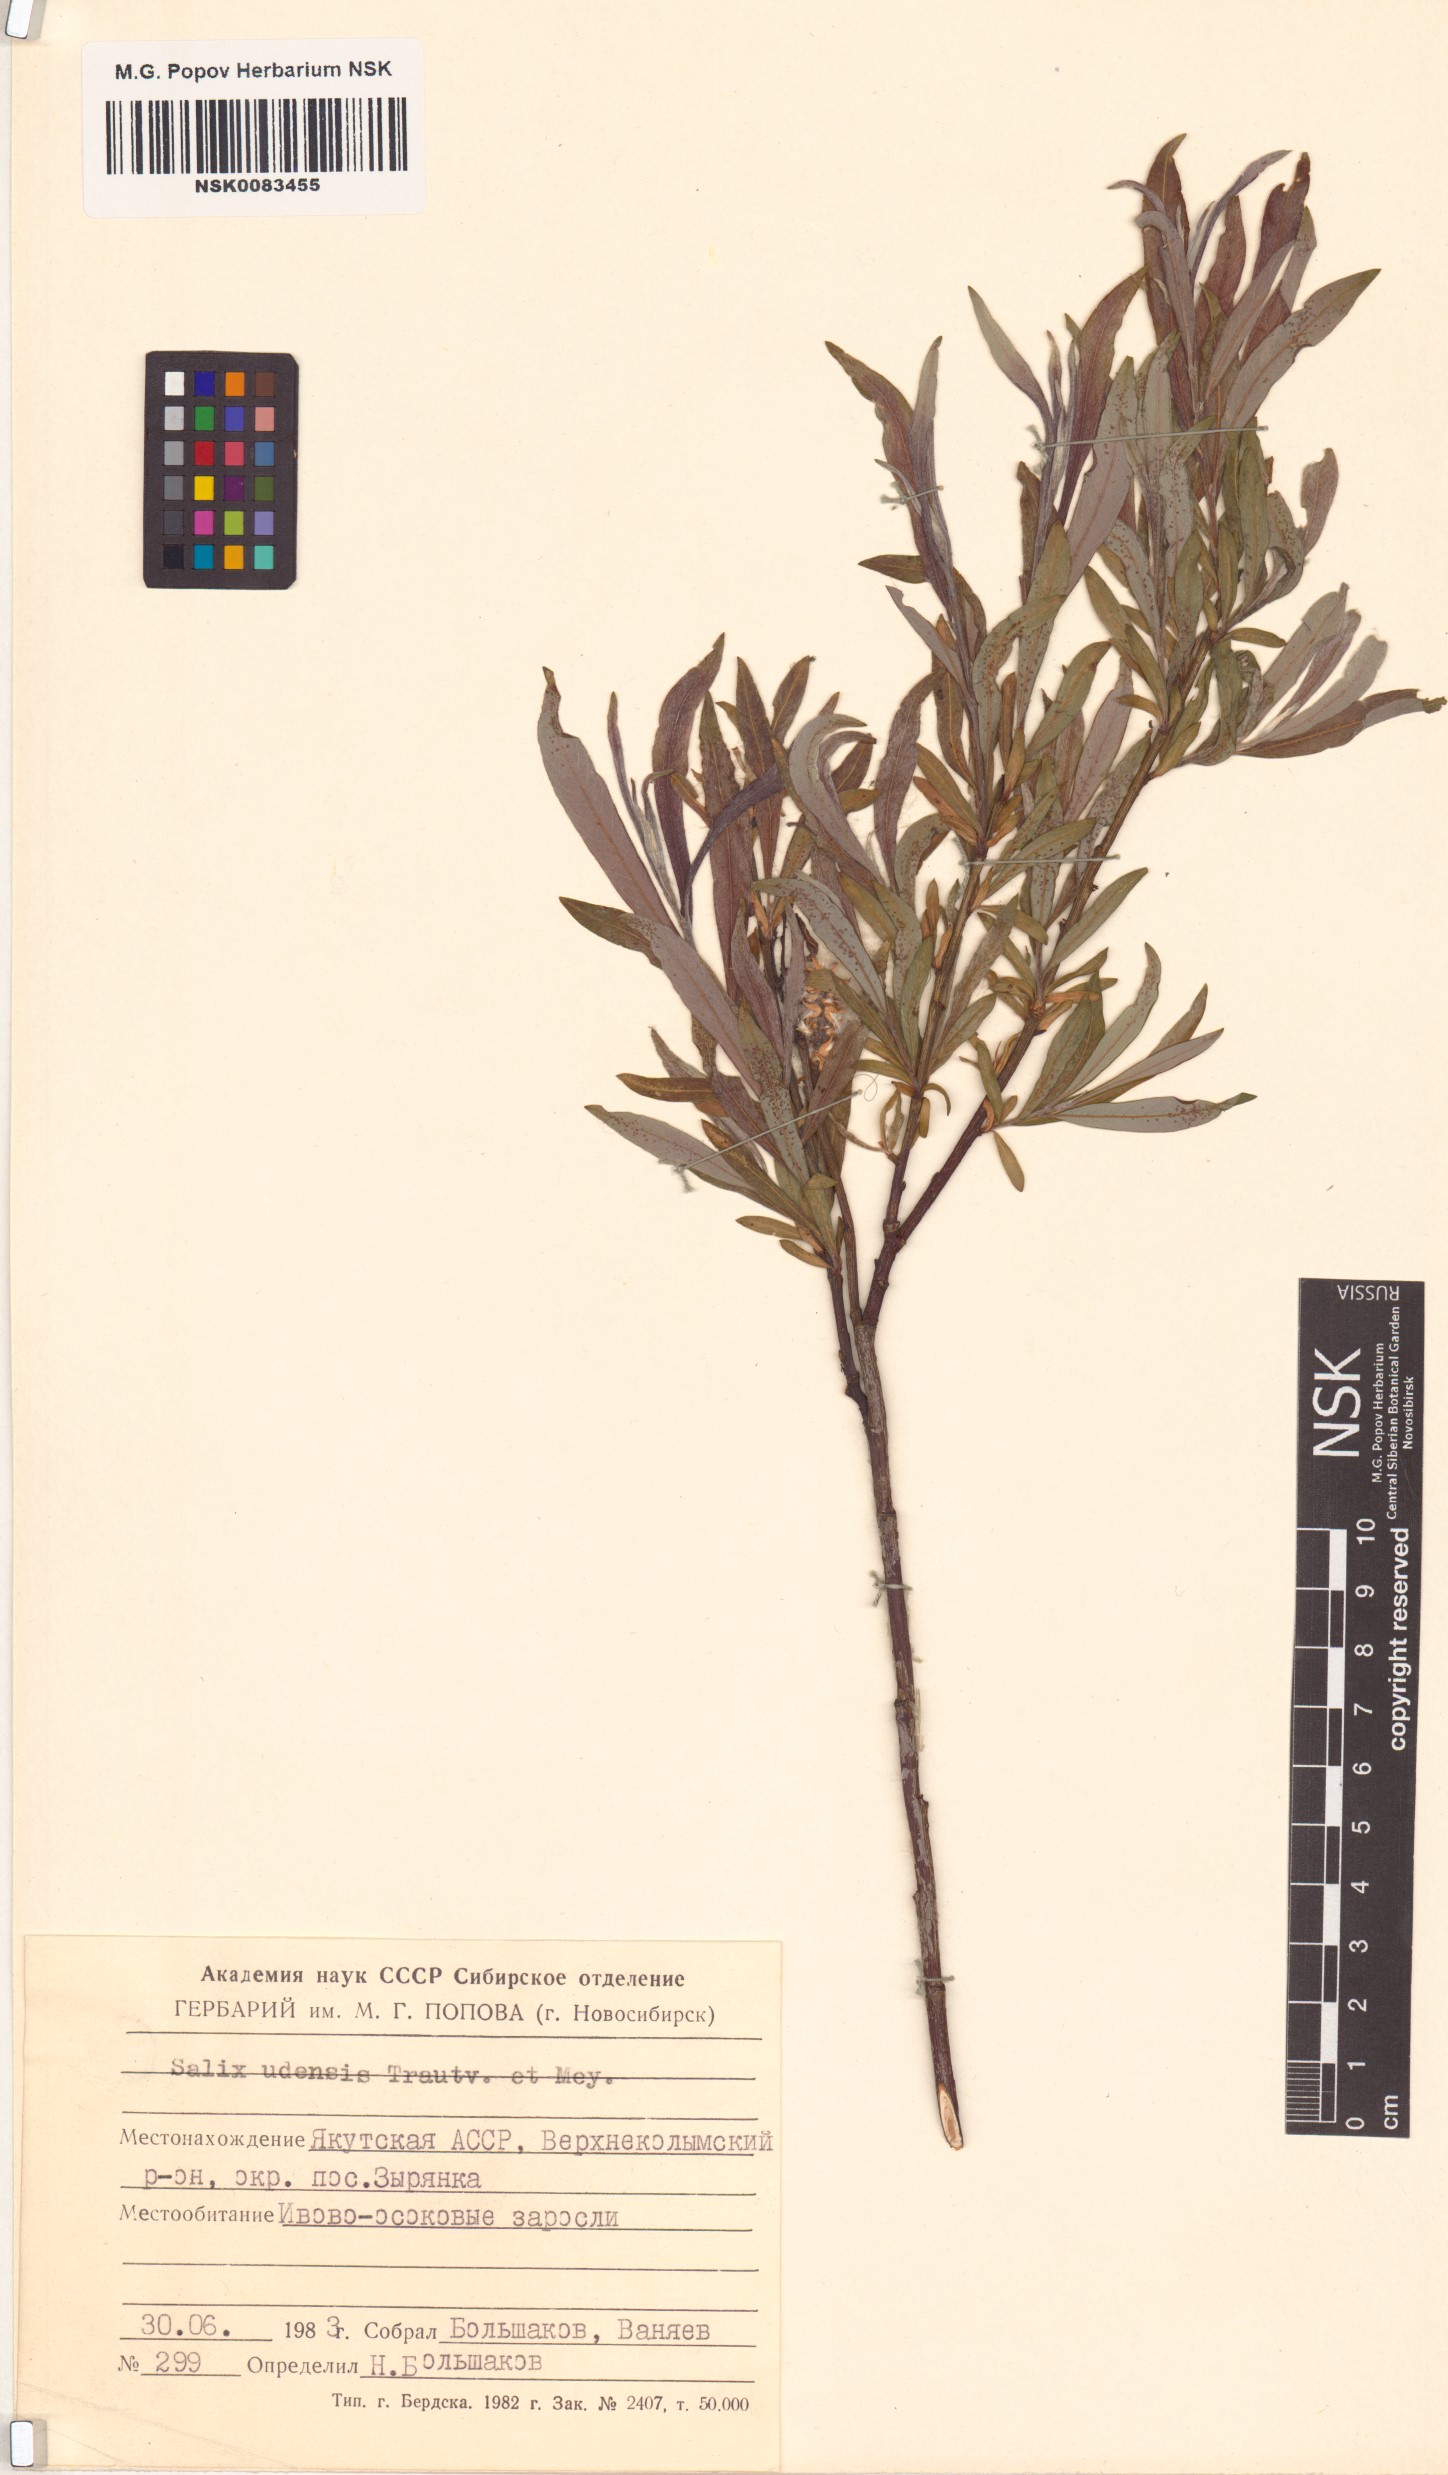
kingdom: Plantae
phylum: Tracheophyta
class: Magnoliopsida
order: Malpighiales
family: Salicaceae
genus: Salix
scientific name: Salix udensis
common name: Sachalin willow
